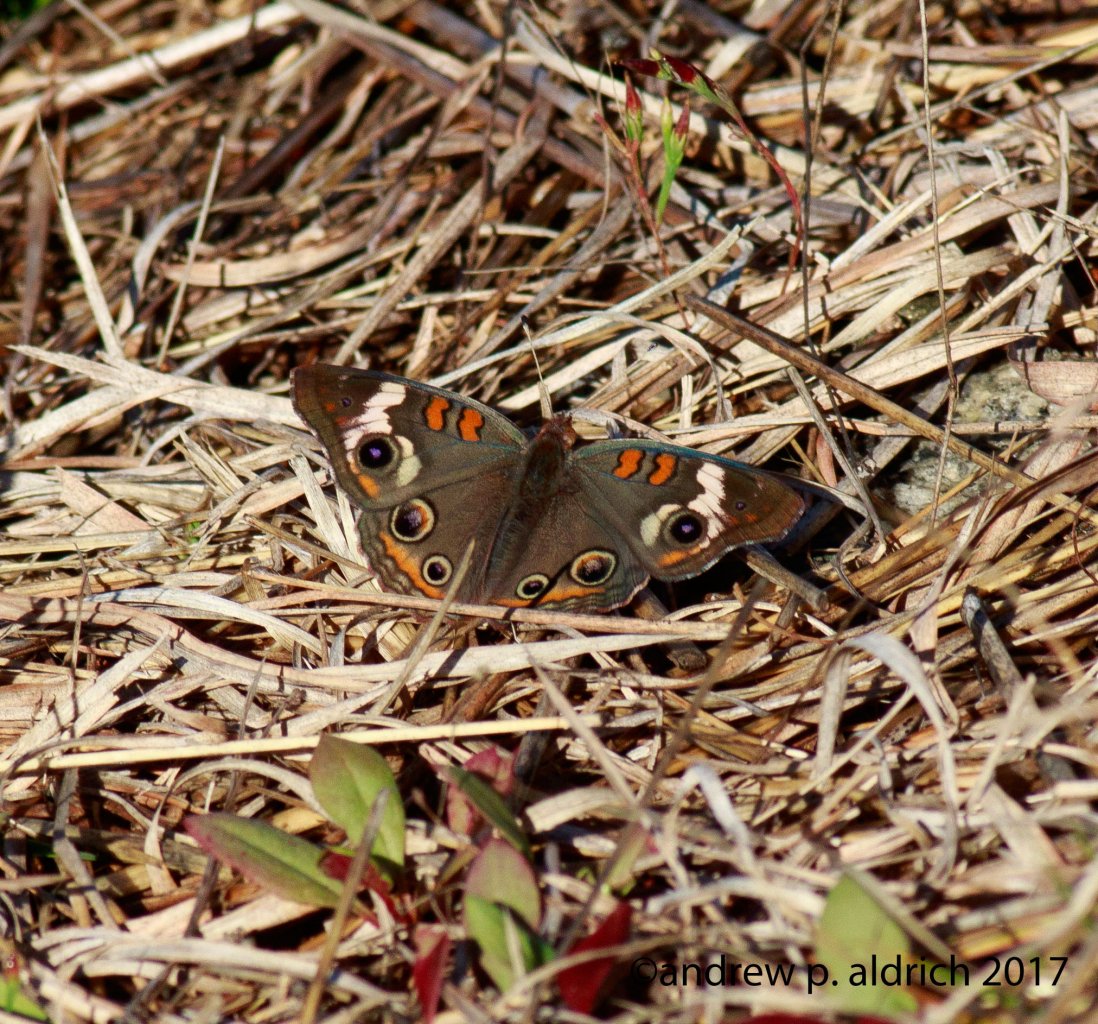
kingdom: Animalia
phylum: Arthropoda
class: Insecta
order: Lepidoptera
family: Nymphalidae
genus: Junonia
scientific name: Junonia coenia
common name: Common Buckeye
